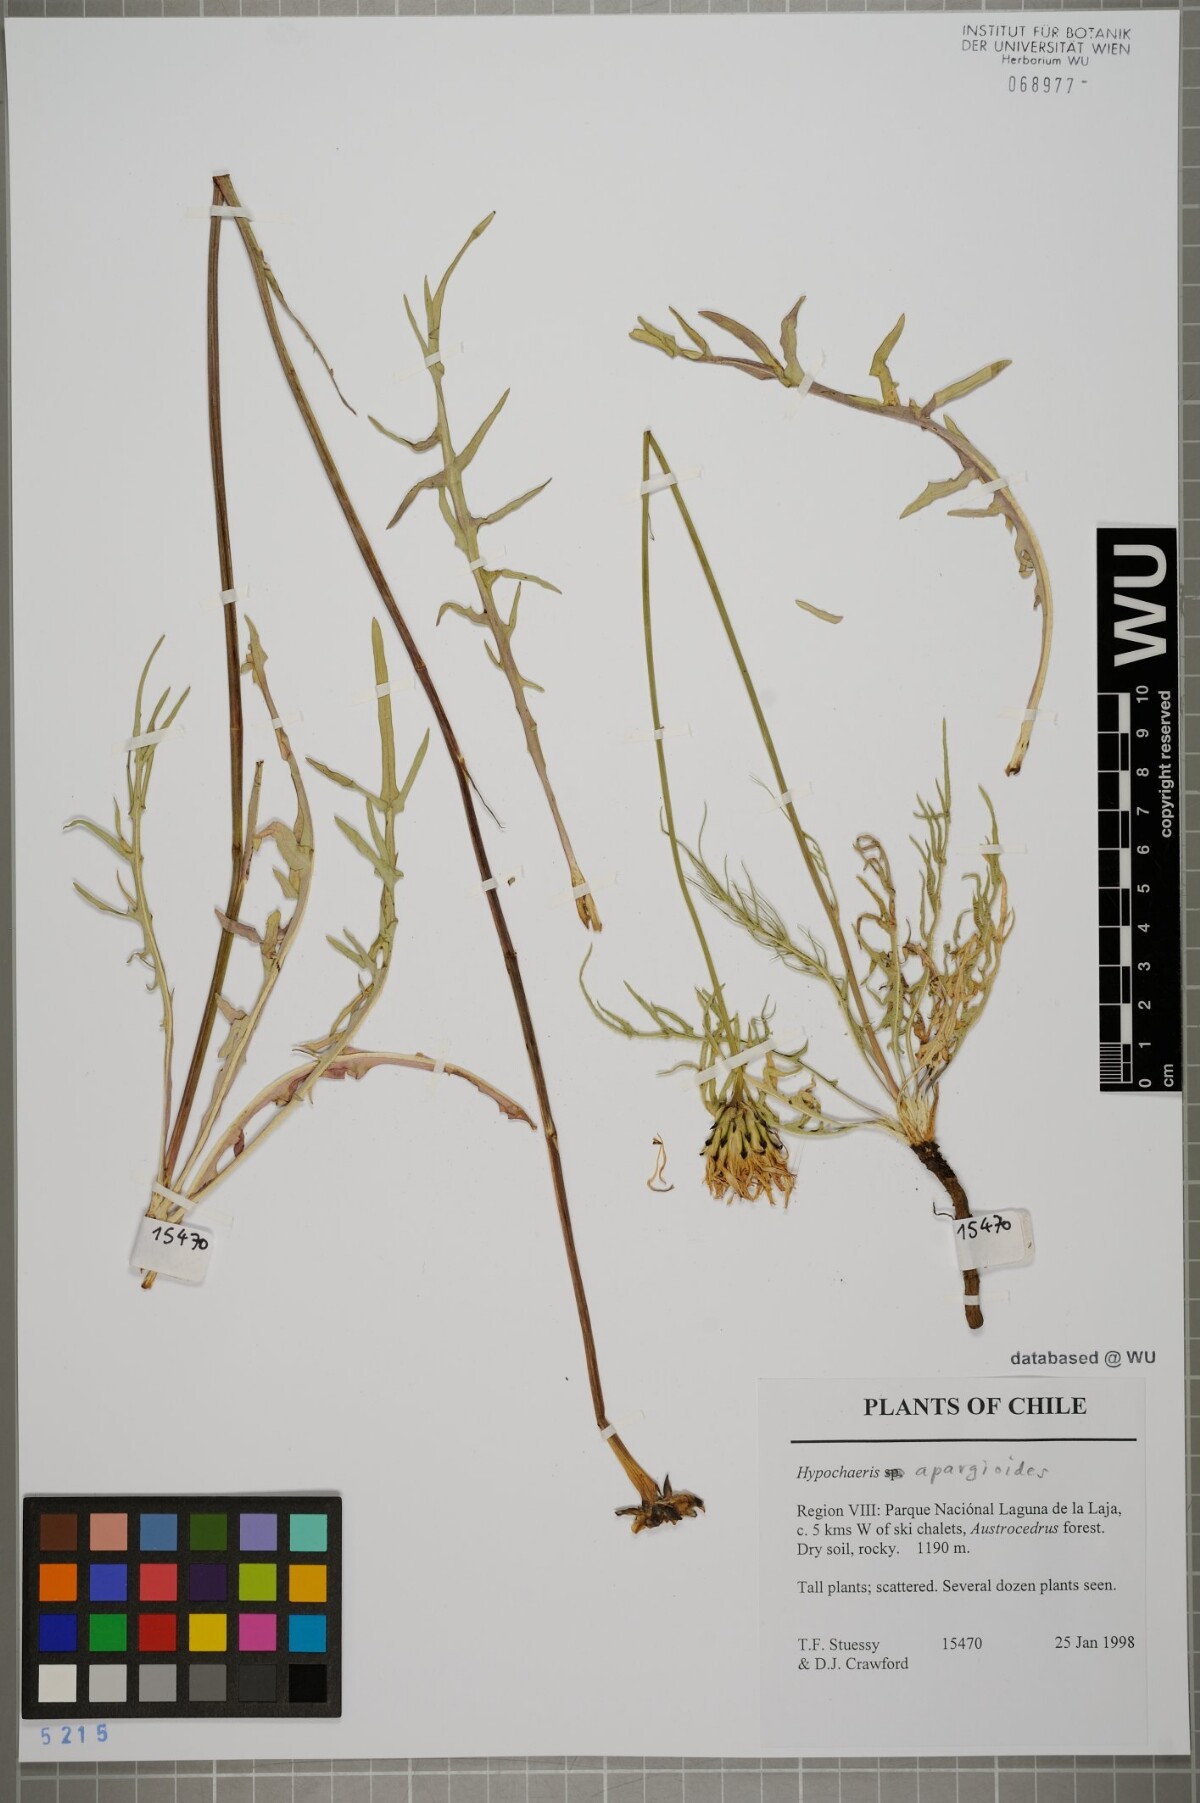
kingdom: Plantae
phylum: Tracheophyta
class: Magnoliopsida
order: Asterales
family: Asteraceae
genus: Hypochaeris
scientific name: Hypochaeris apargioides
